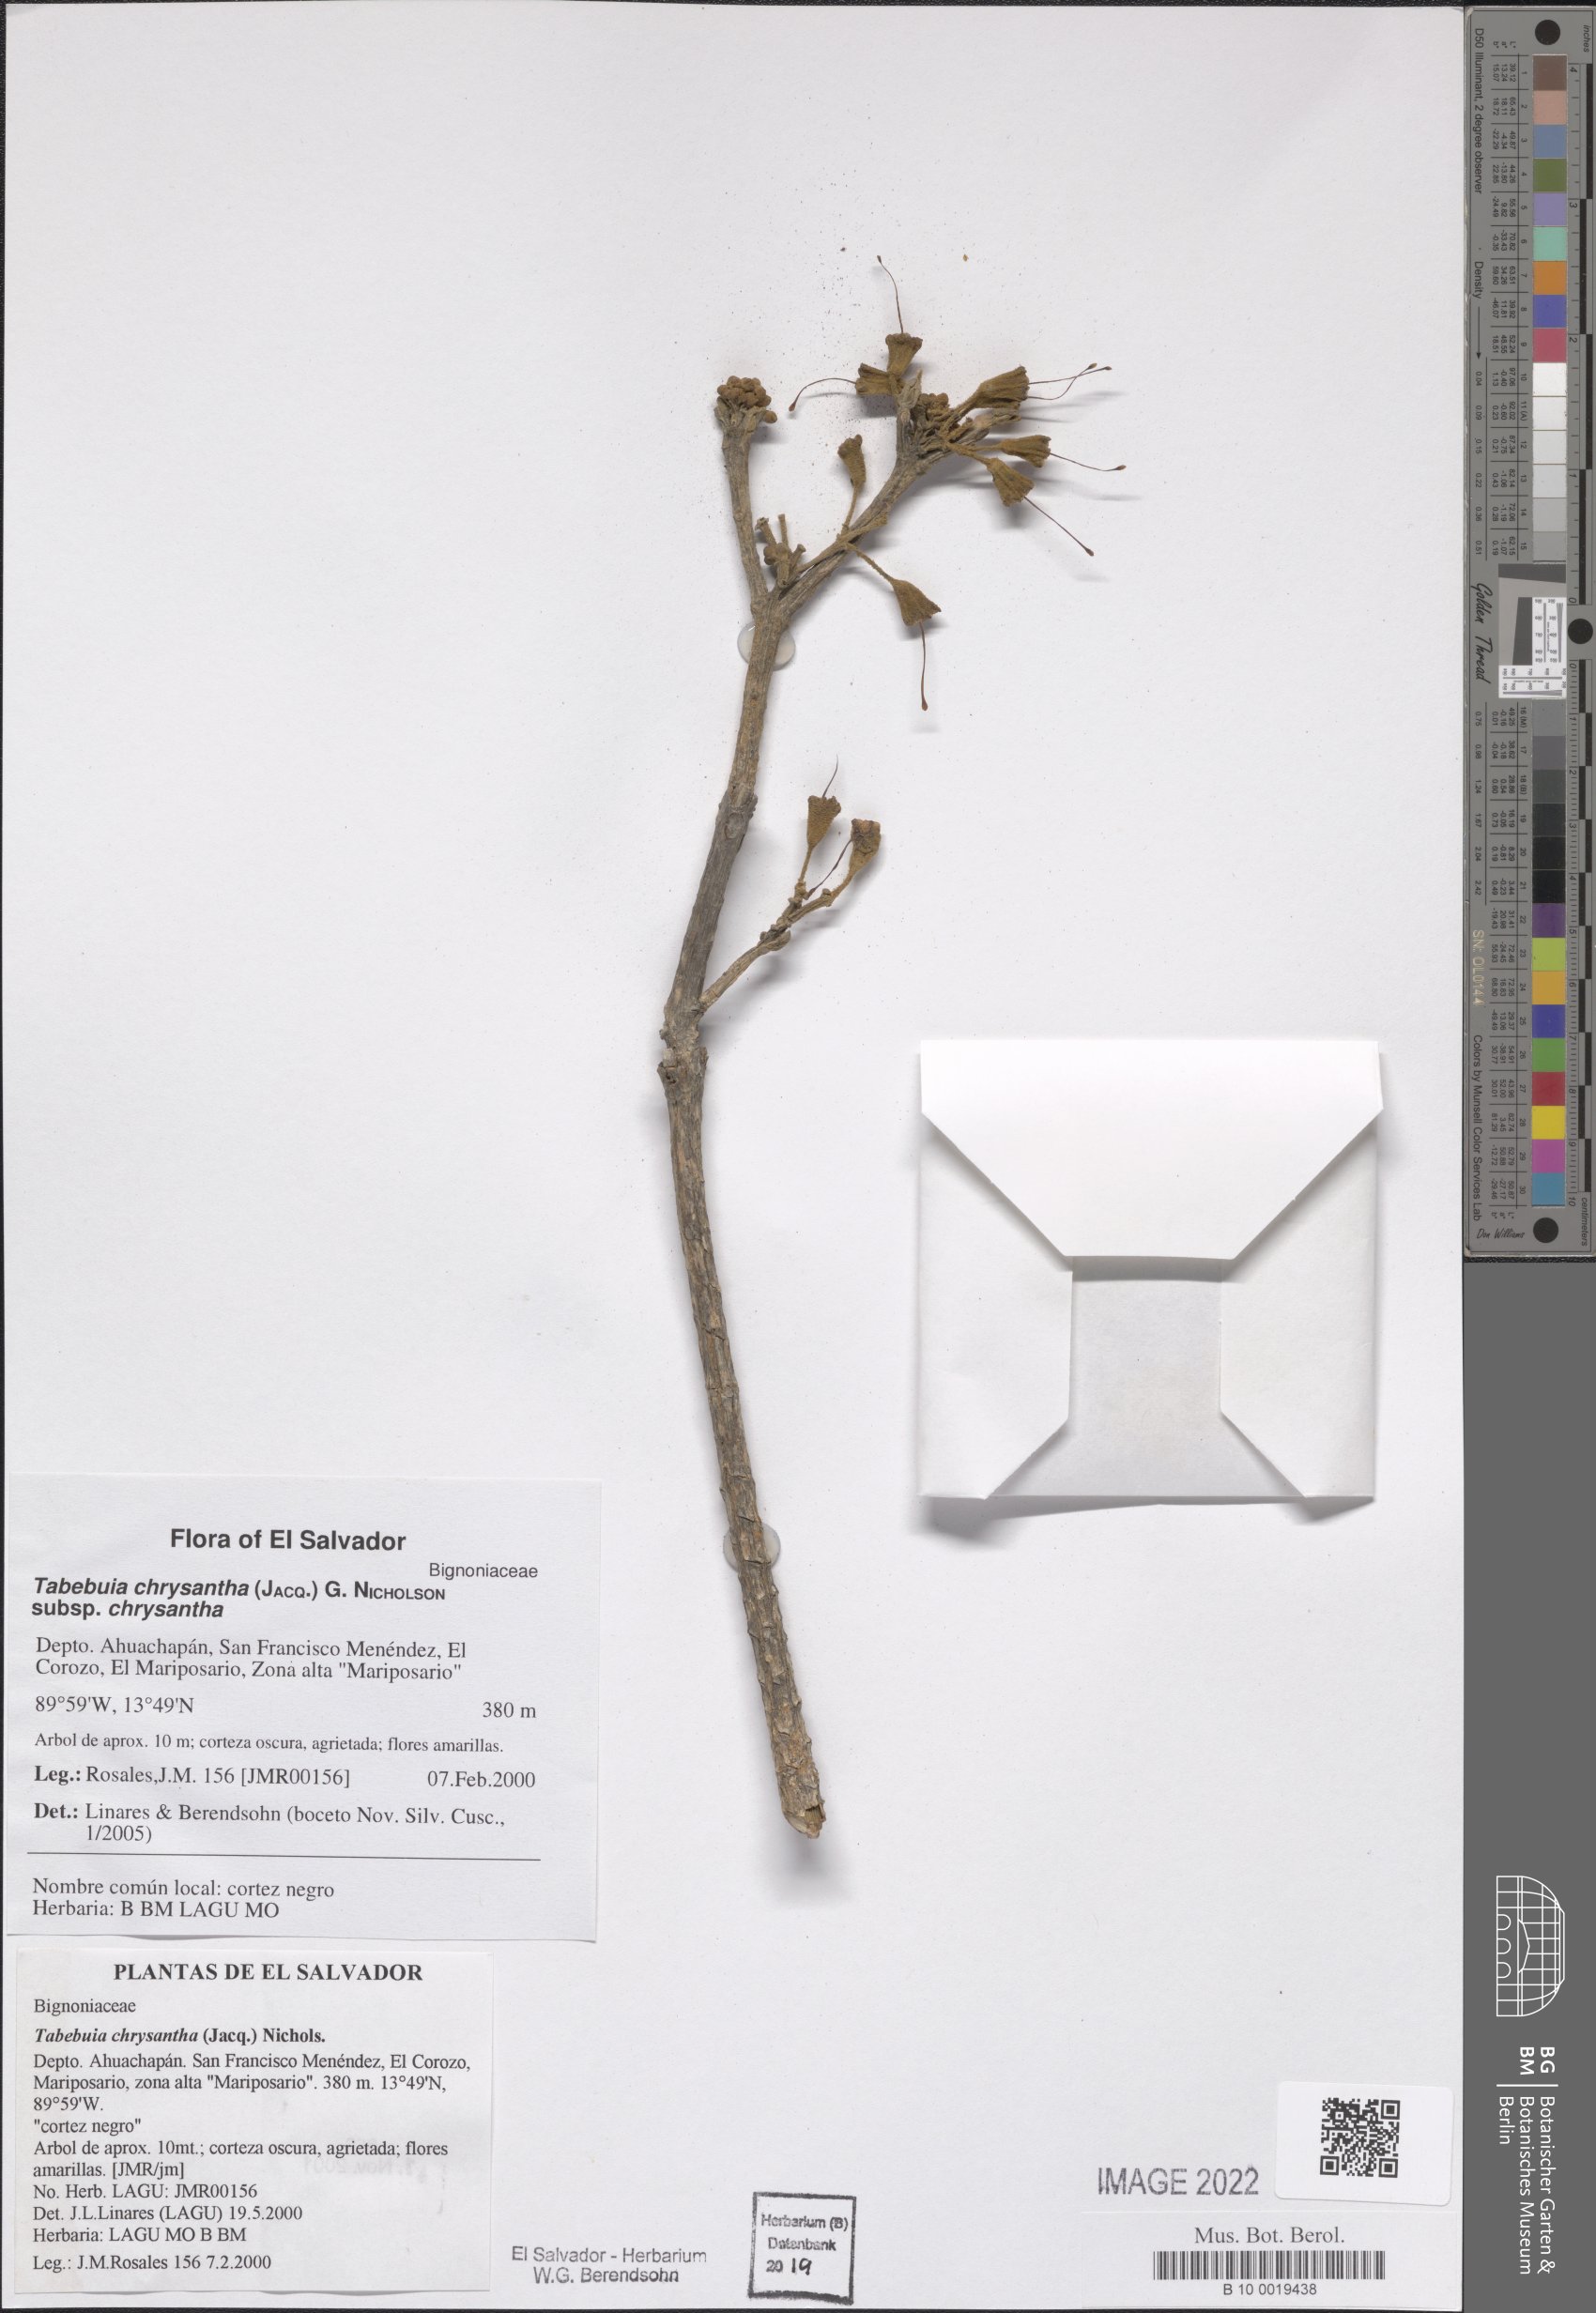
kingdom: Plantae
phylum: Tracheophyta
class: Magnoliopsida
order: Lamiales
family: Bignoniaceae
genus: Handroanthus
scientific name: Handroanthus chrysanthus
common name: Trumpet trees
